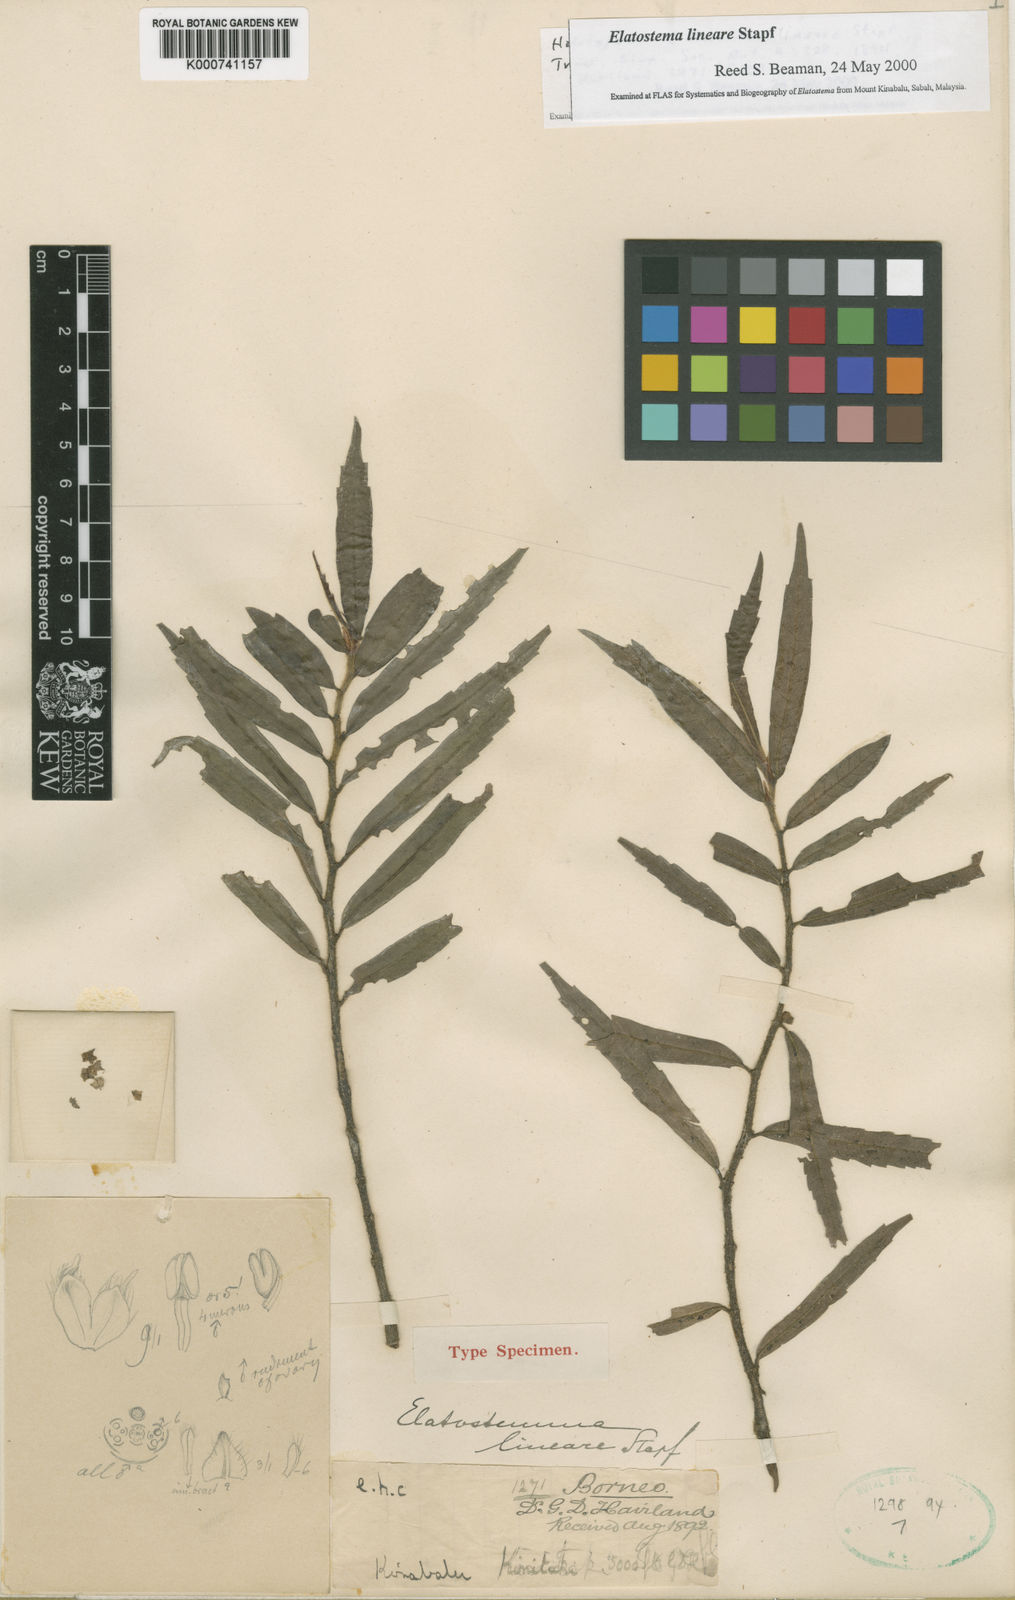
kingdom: Plantae
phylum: Tracheophyta
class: Magnoliopsida
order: Rosales
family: Urticaceae
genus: Elatostema
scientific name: Elatostema lineare
